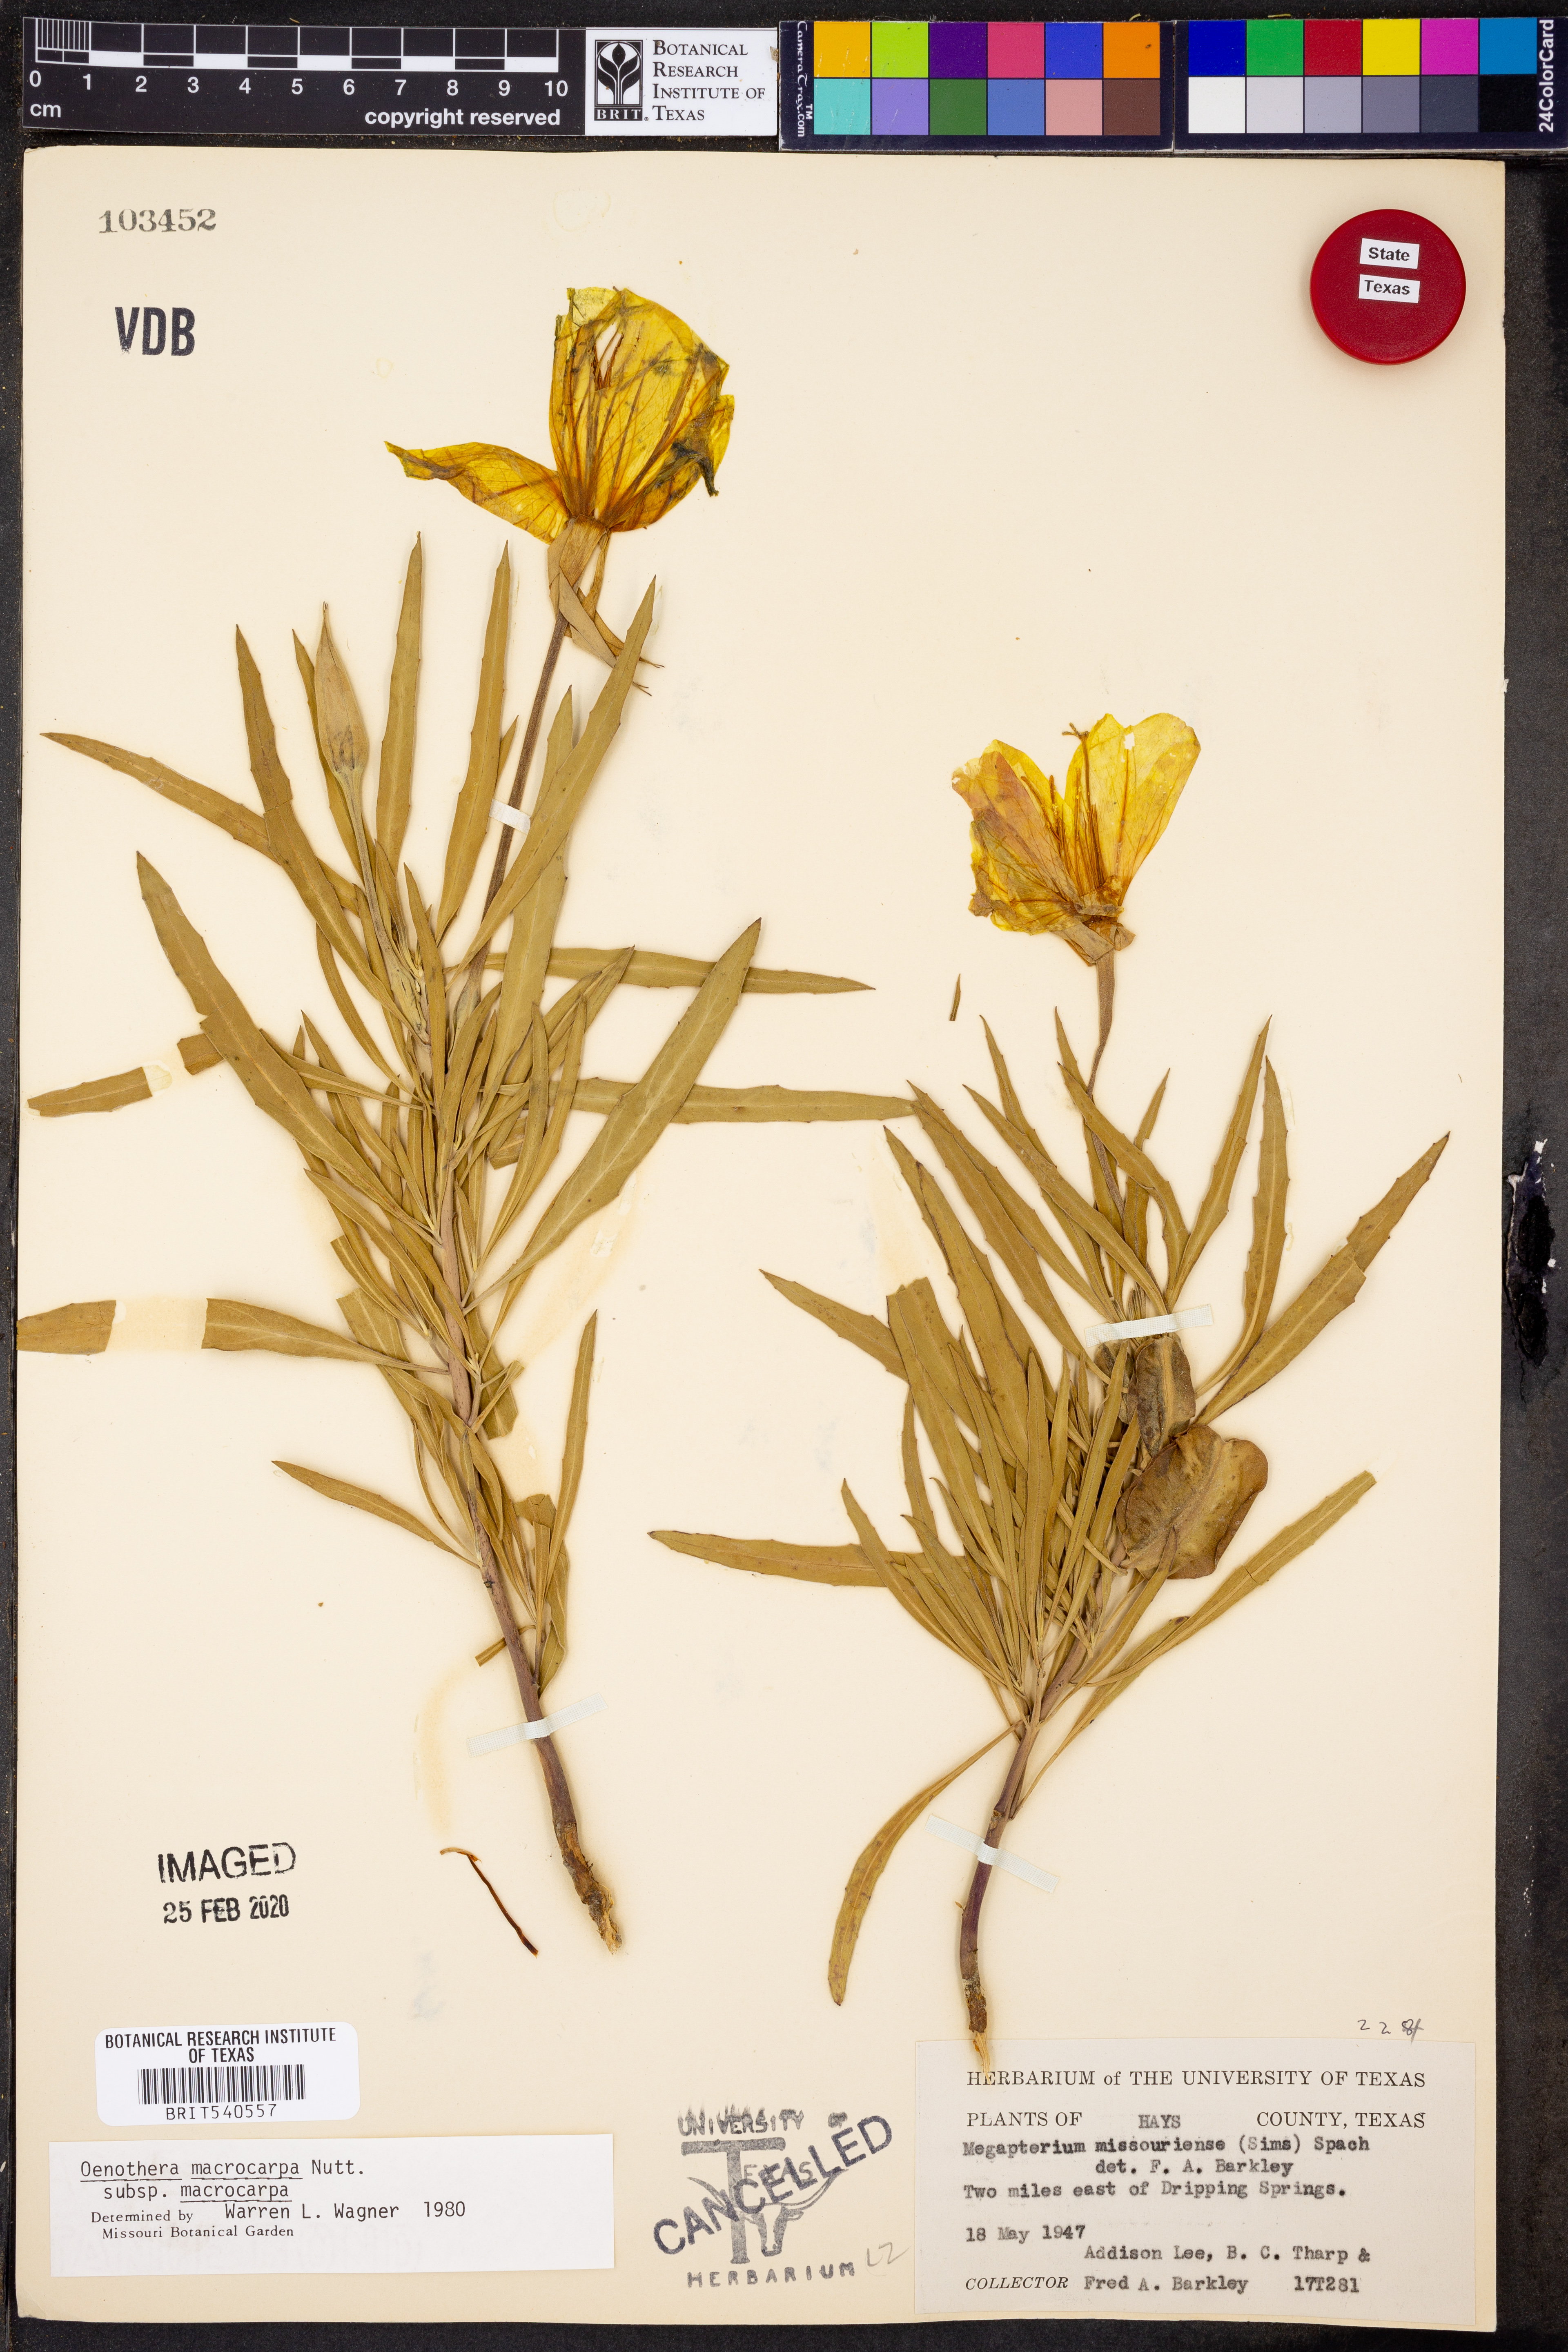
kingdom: Plantae
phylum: Tracheophyta
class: Magnoliopsida
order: Myrtales
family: Onagraceae
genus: Oenothera
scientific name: Oenothera macrocarpa
